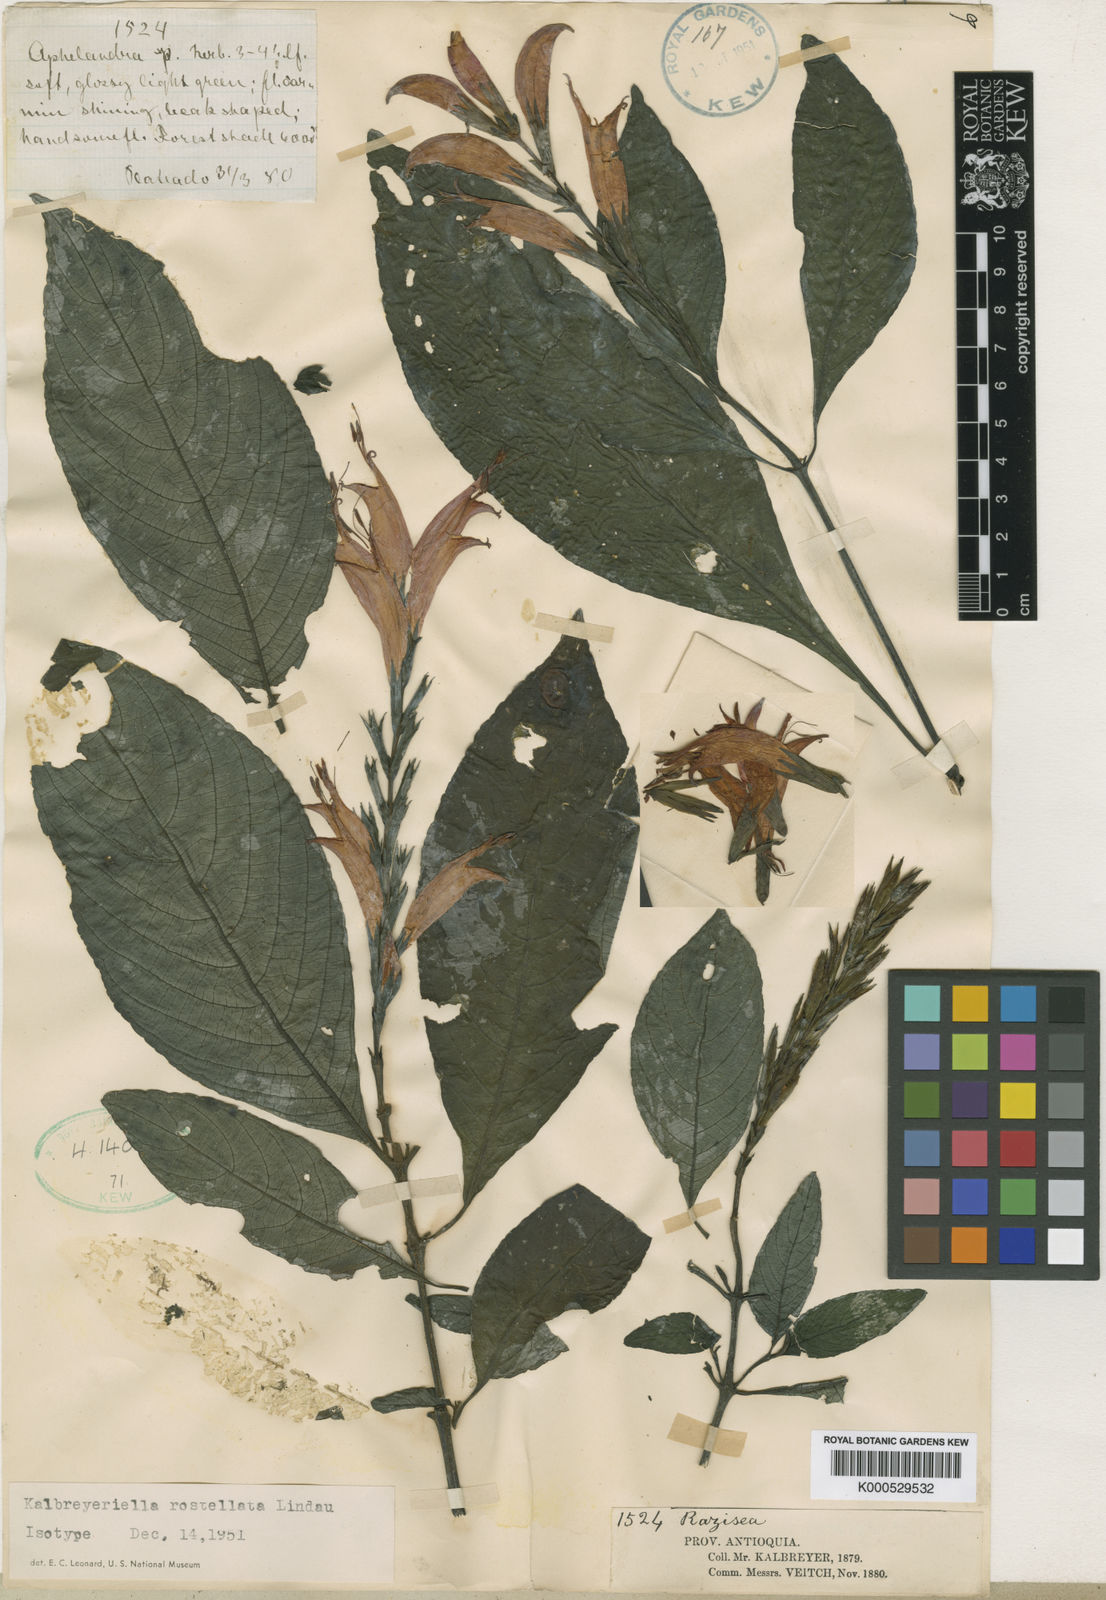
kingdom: Plantae
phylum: Tracheophyta
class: Magnoliopsida
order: Lamiales
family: Acanthaceae
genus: Stenostephanus
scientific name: Stenostephanus
